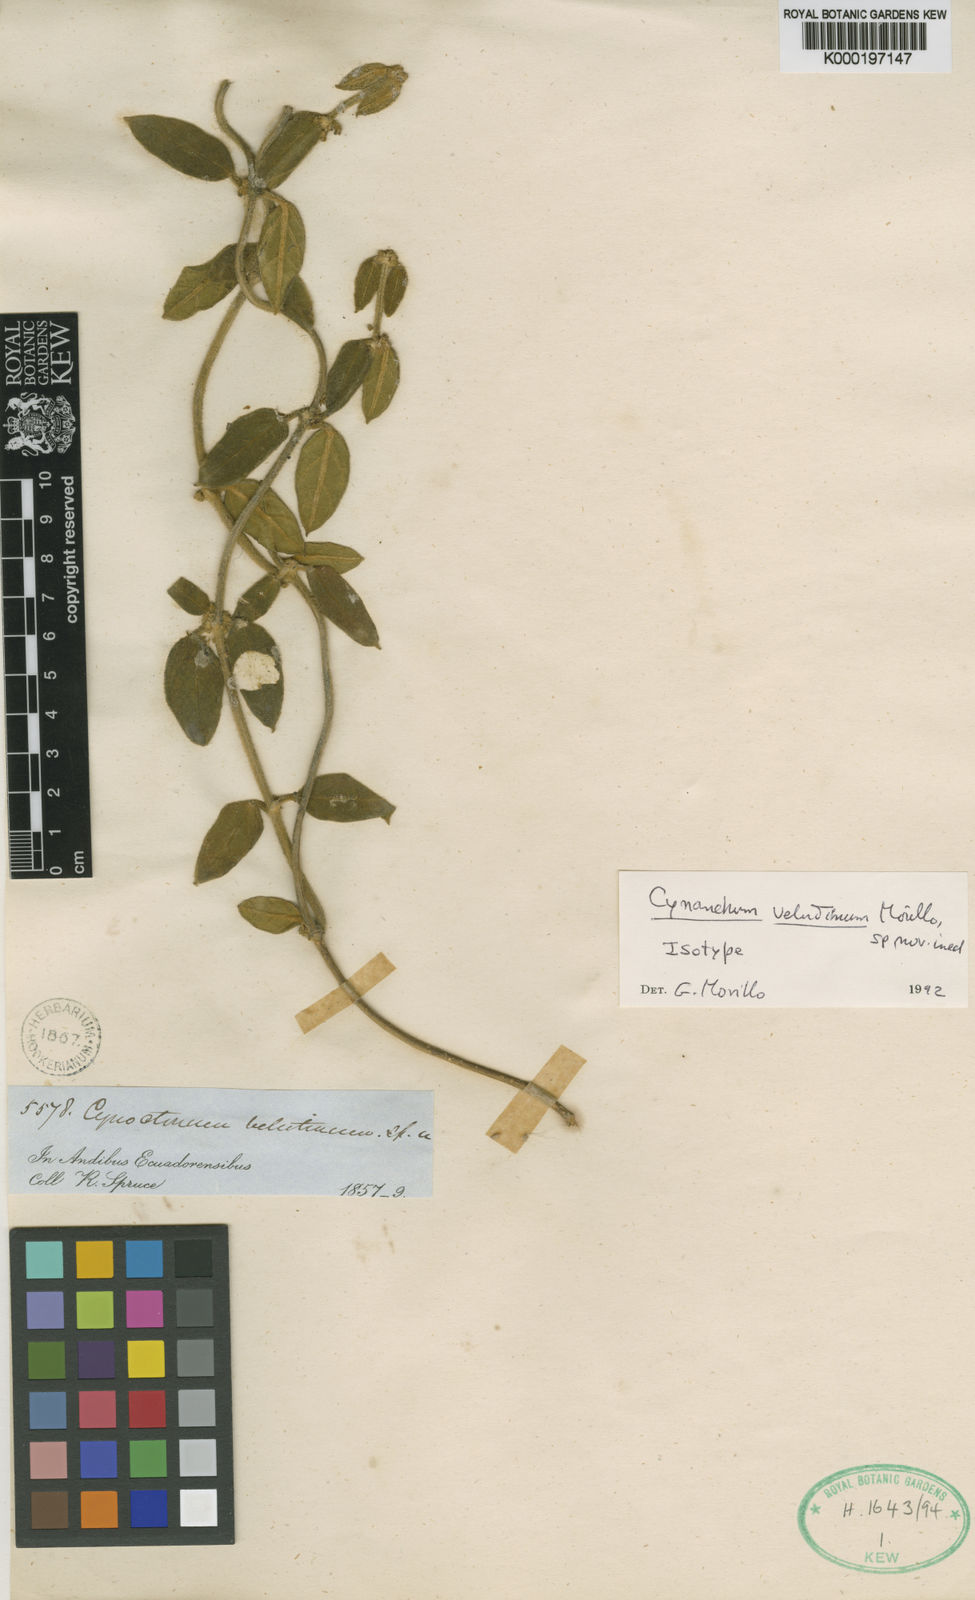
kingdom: Plantae
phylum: Tracheophyta
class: Magnoliopsida
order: Gentianales
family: Apocynaceae
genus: Scyphostelma
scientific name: Scyphostelma velutinum
